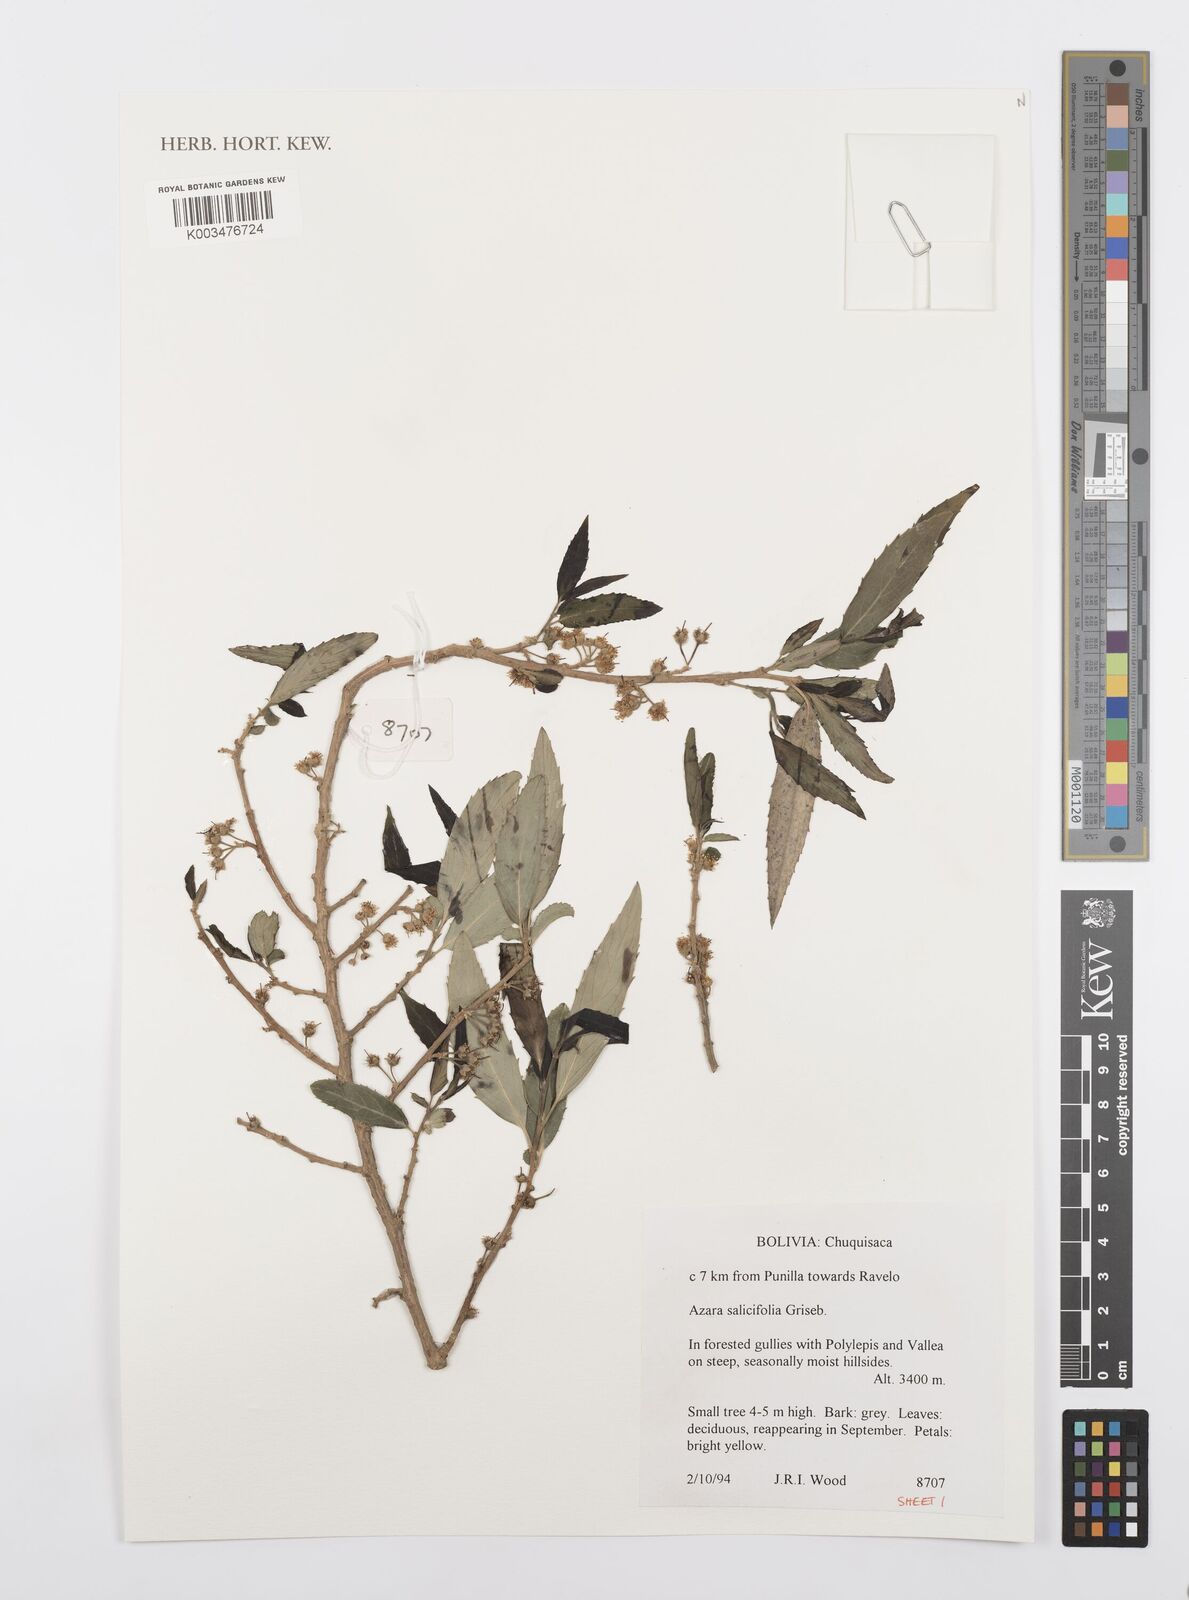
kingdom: Plantae
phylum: Tracheophyta
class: Magnoliopsida
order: Malpighiales
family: Salicaceae
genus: Azara
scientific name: Azara salicifolia
